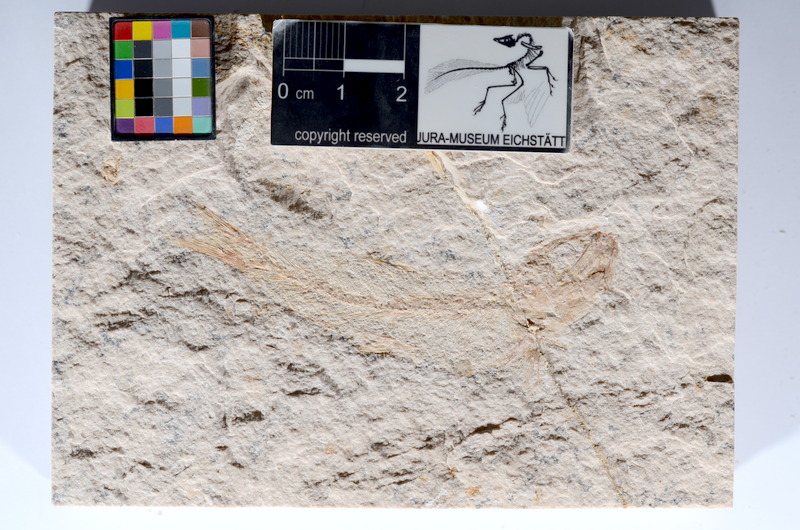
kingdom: Animalia
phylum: Chordata
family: Ascalaboidae
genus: Tharsis
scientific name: Tharsis dubius
